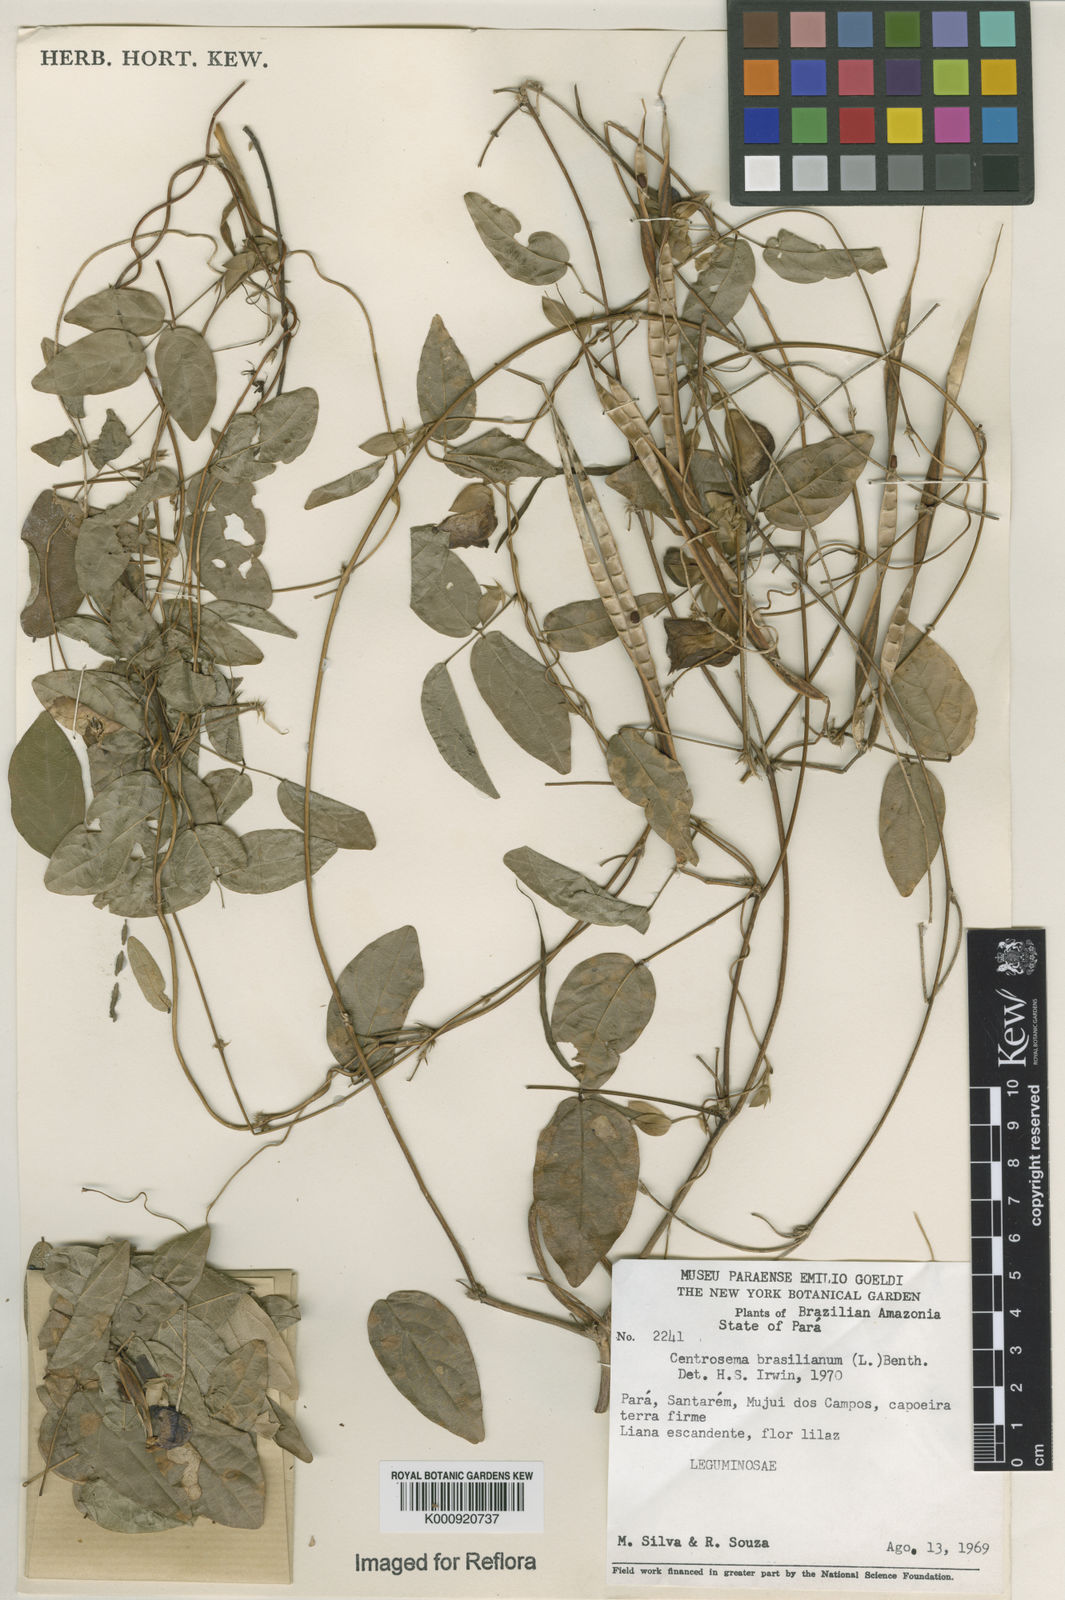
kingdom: Plantae
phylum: Tracheophyta
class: Magnoliopsida
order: Fabales
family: Fabaceae
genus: Centrosema
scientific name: Centrosema brasilianum
